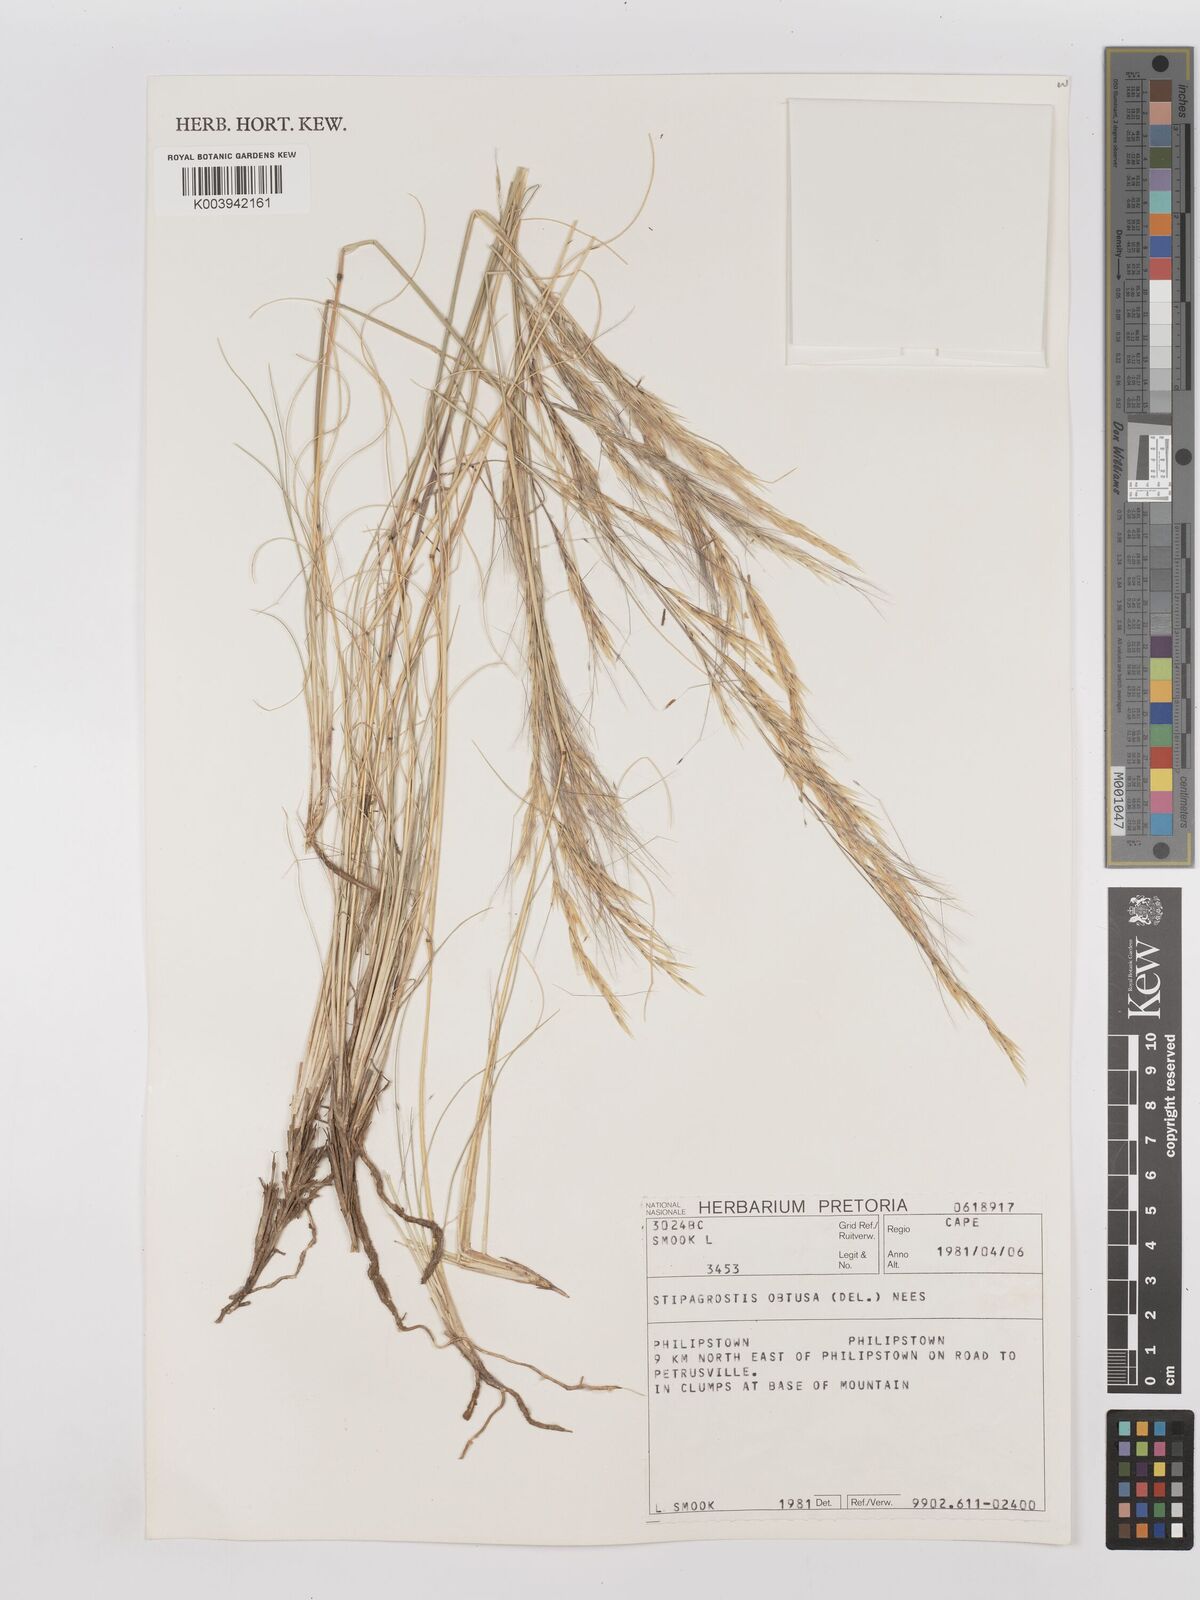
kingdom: Plantae
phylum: Tracheophyta
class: Liliopsida
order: Poales
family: Poaceae
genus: Stipagrostis
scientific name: Stipagrostis obtusa
